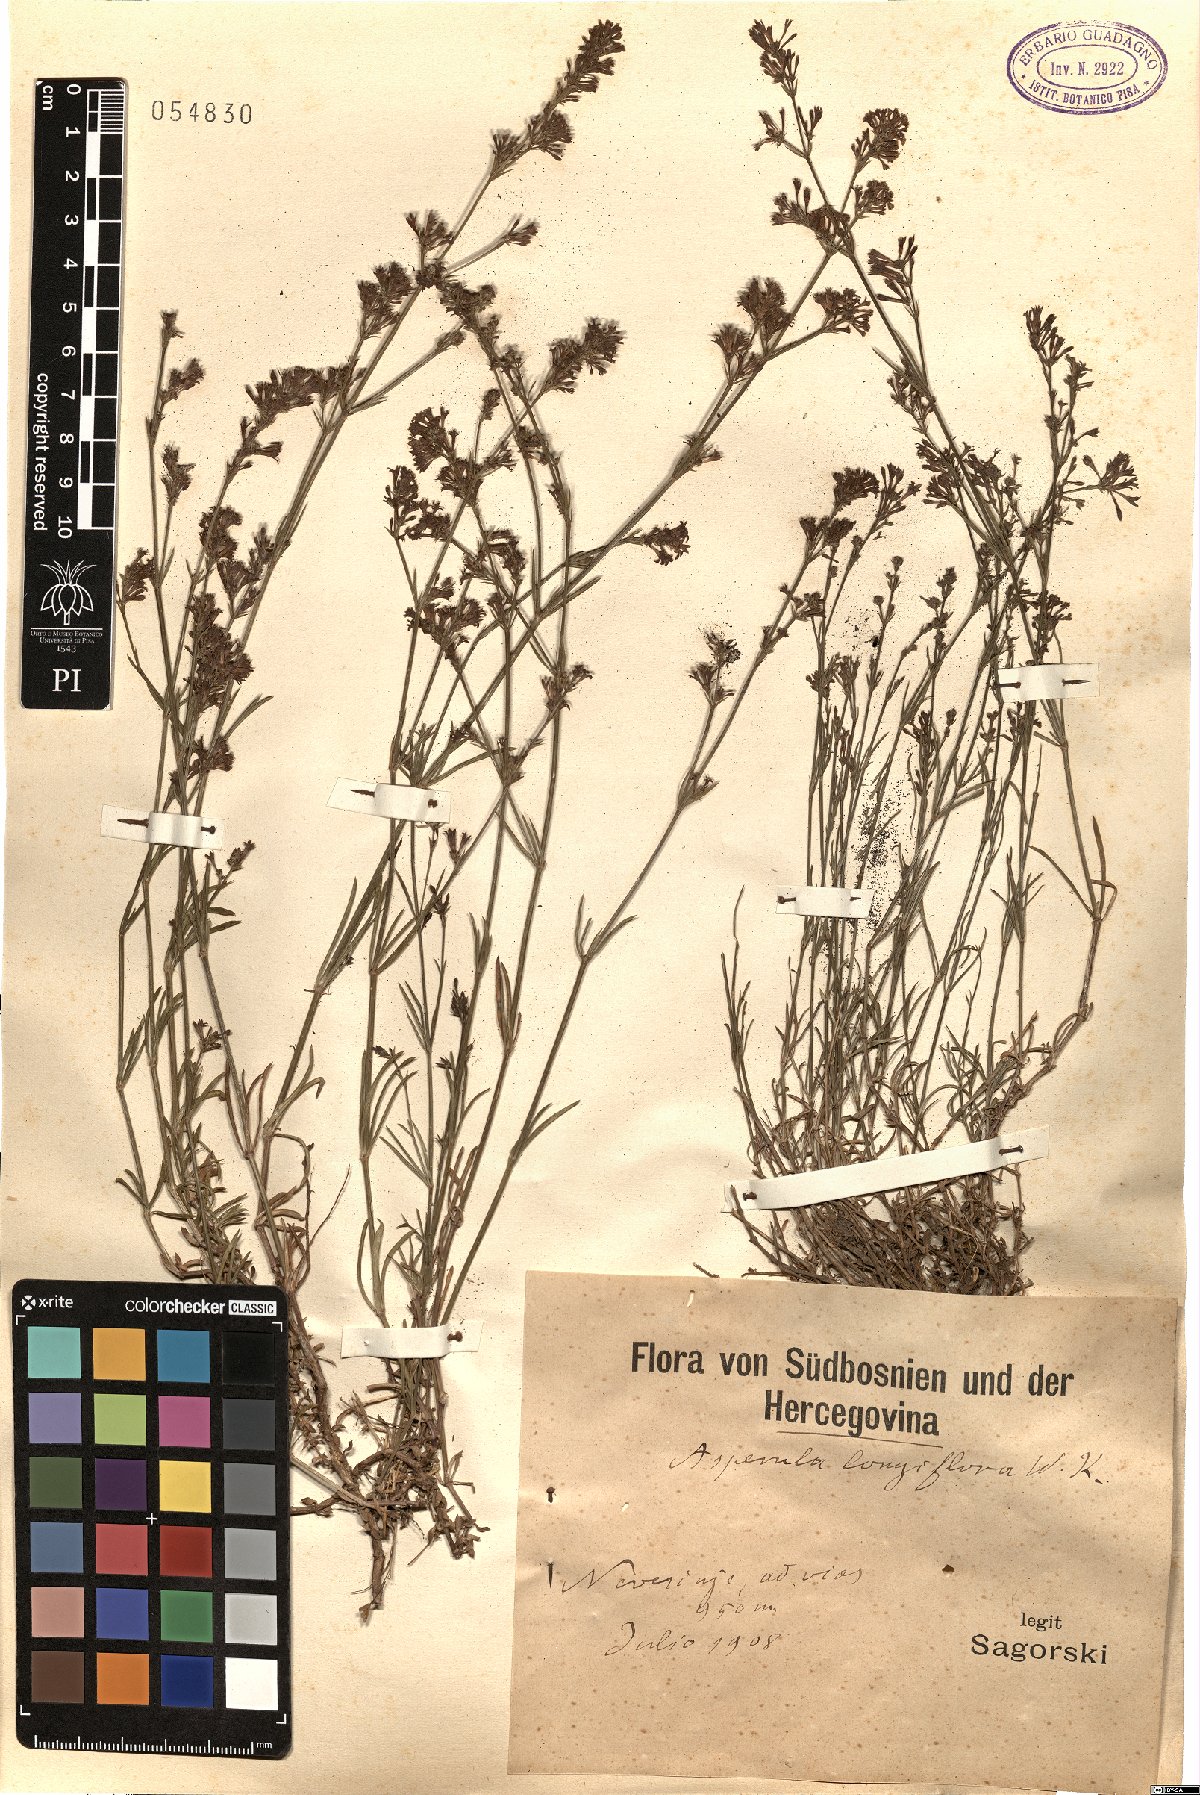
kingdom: Plantae
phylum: Tracheophyta
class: Magnoliopsida
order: Gentianales
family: Rubiaceae
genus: Cynanchica
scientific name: Cynanchica aristata
